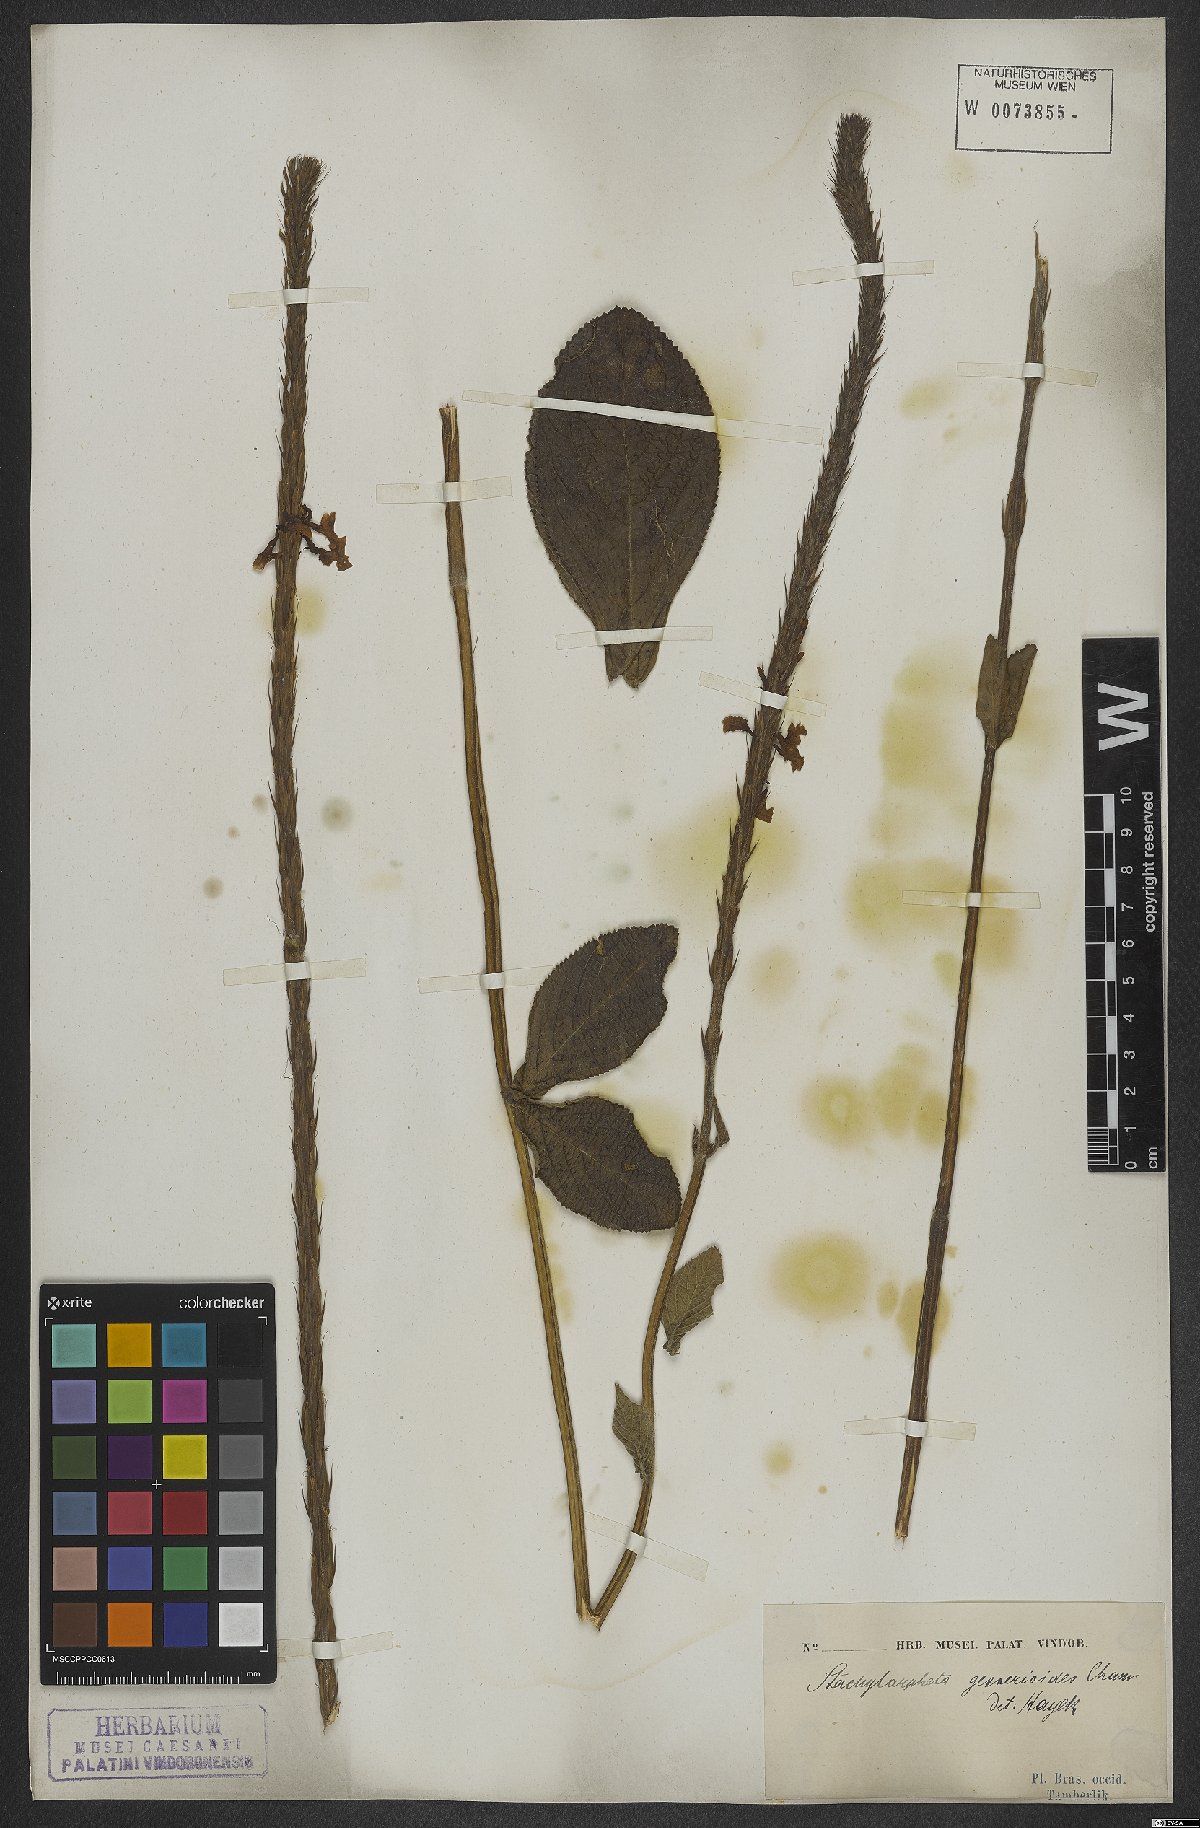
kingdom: Plantae
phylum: Tracheophyta
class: Magnoliopsida
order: Lamiales
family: Verbenaceae
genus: Stachytarpheta
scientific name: Stachytarpheta gesnerioides
